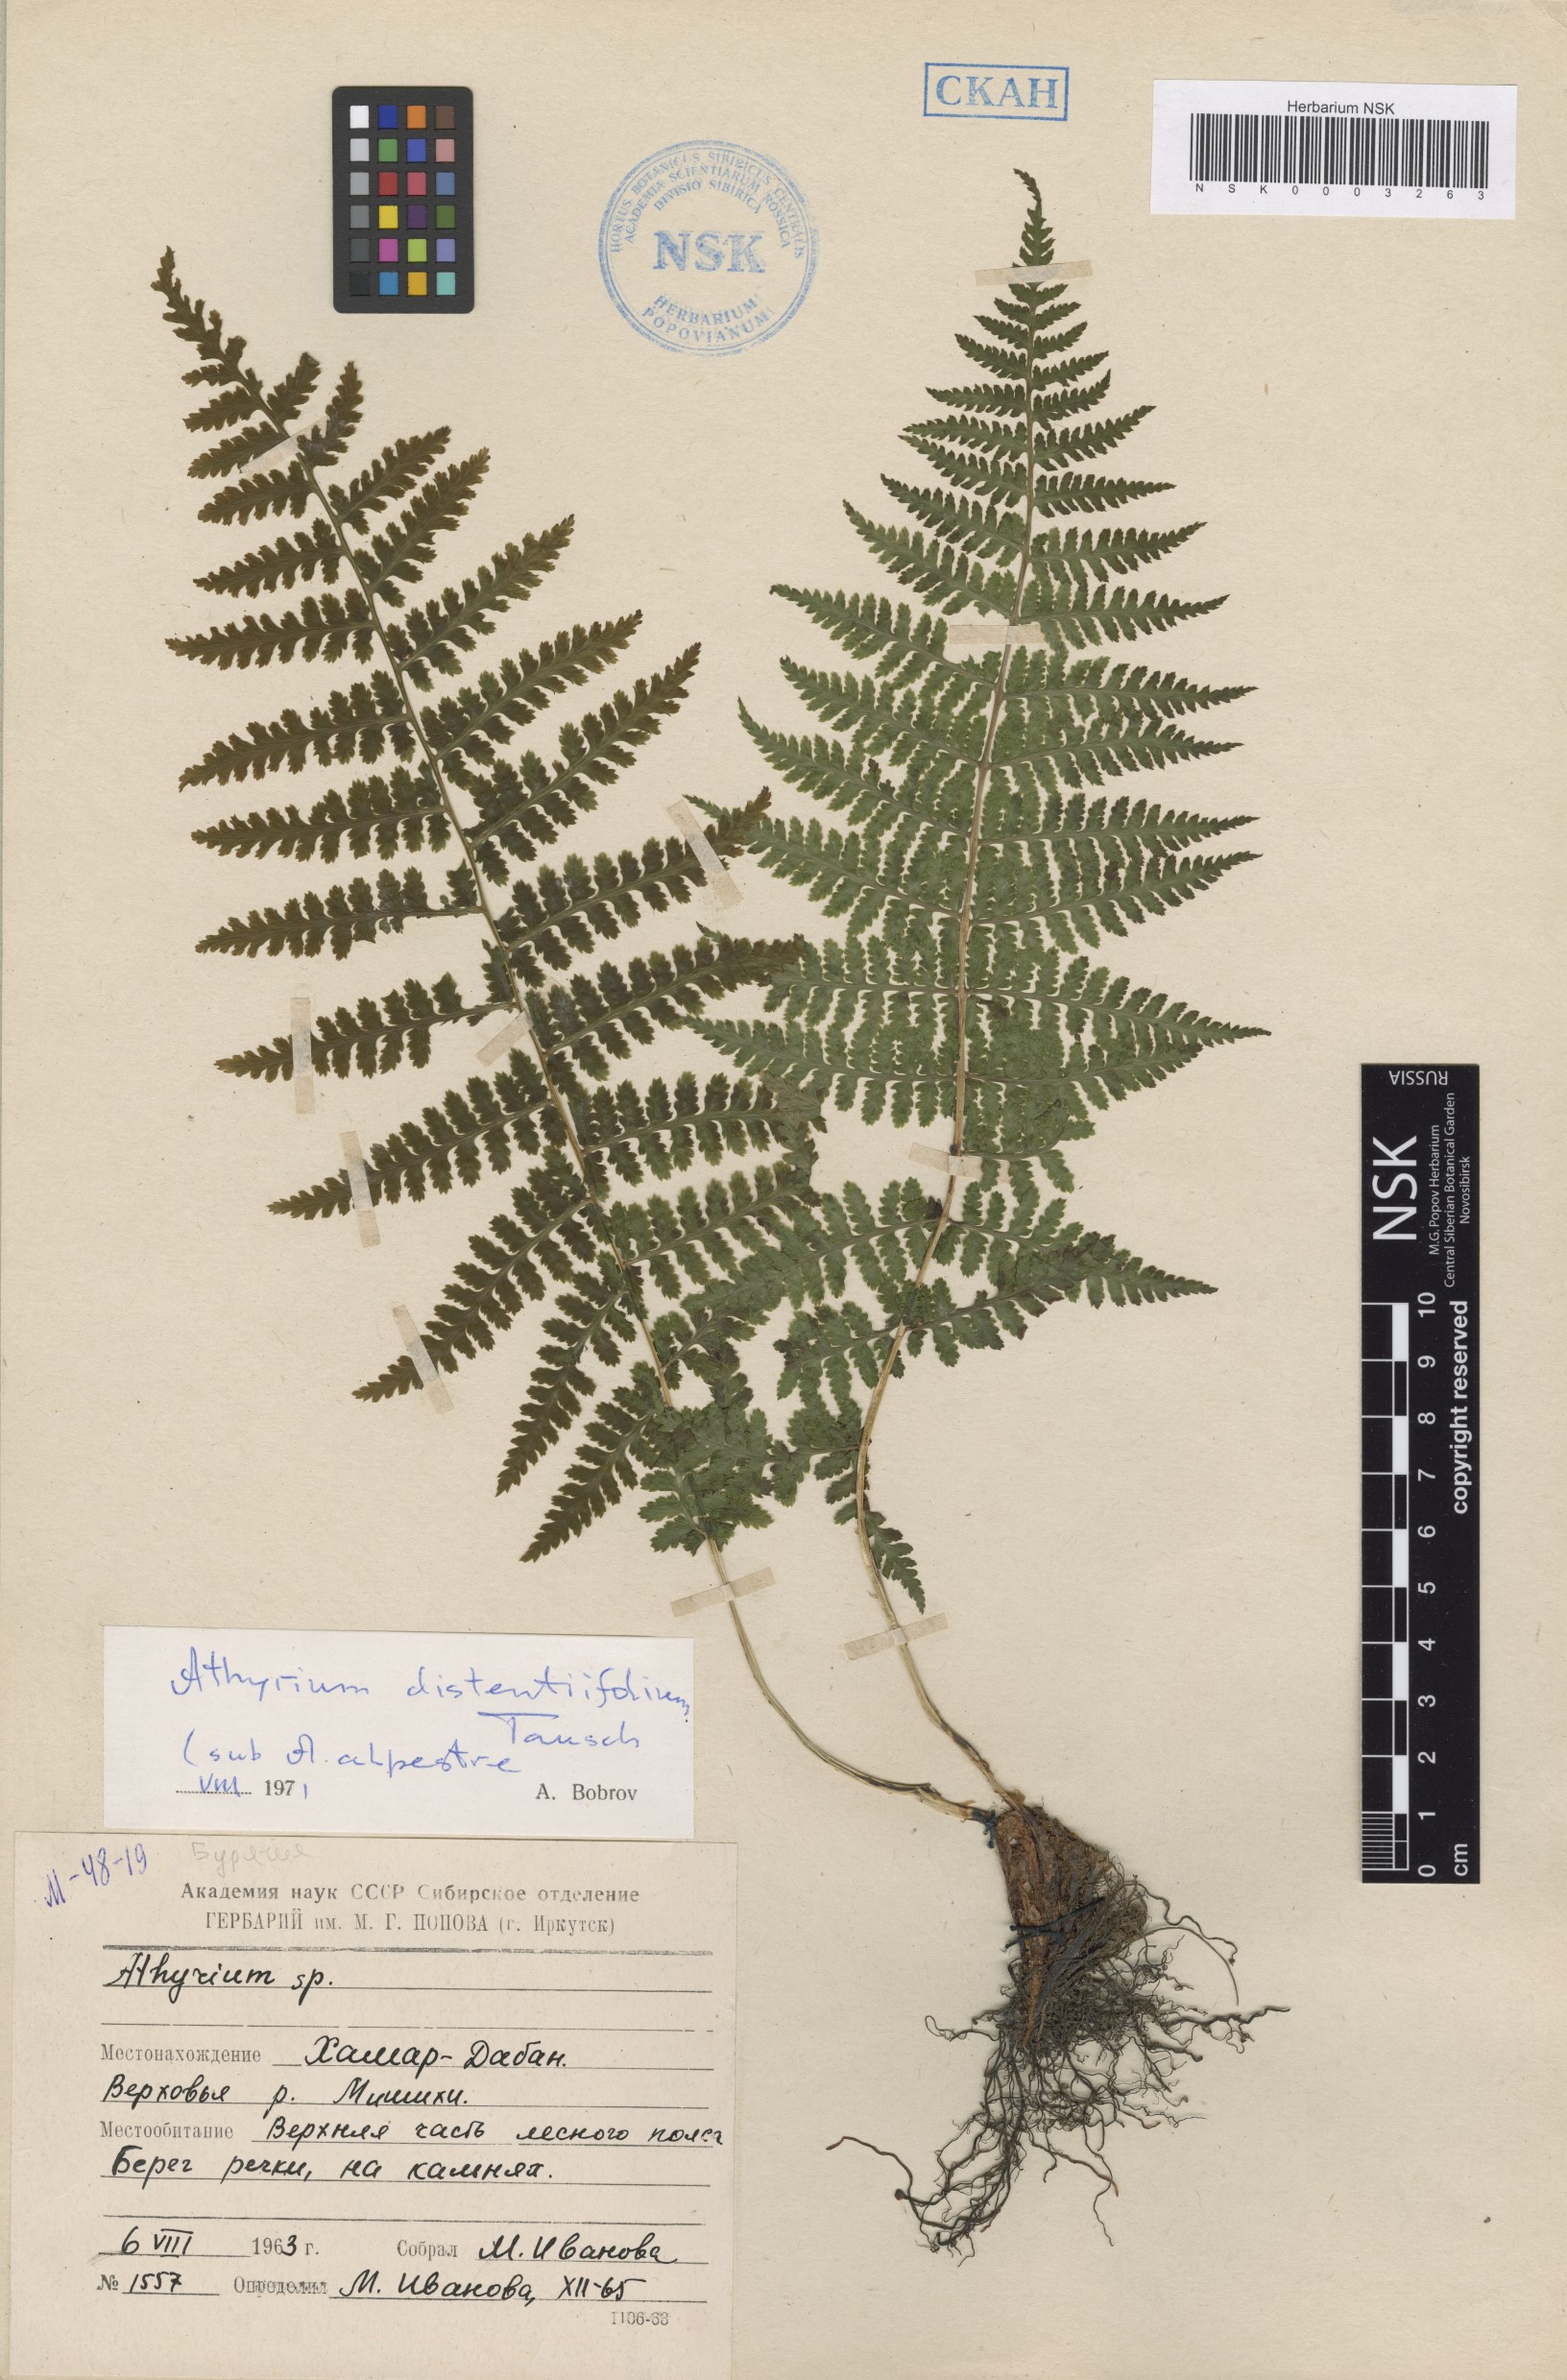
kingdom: Plantae
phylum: Tracheophyta
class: Polypodiopsida
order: Polypodiales
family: Athyriaceae
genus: Pseudathyrium
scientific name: Pseudathyrium alpestre
